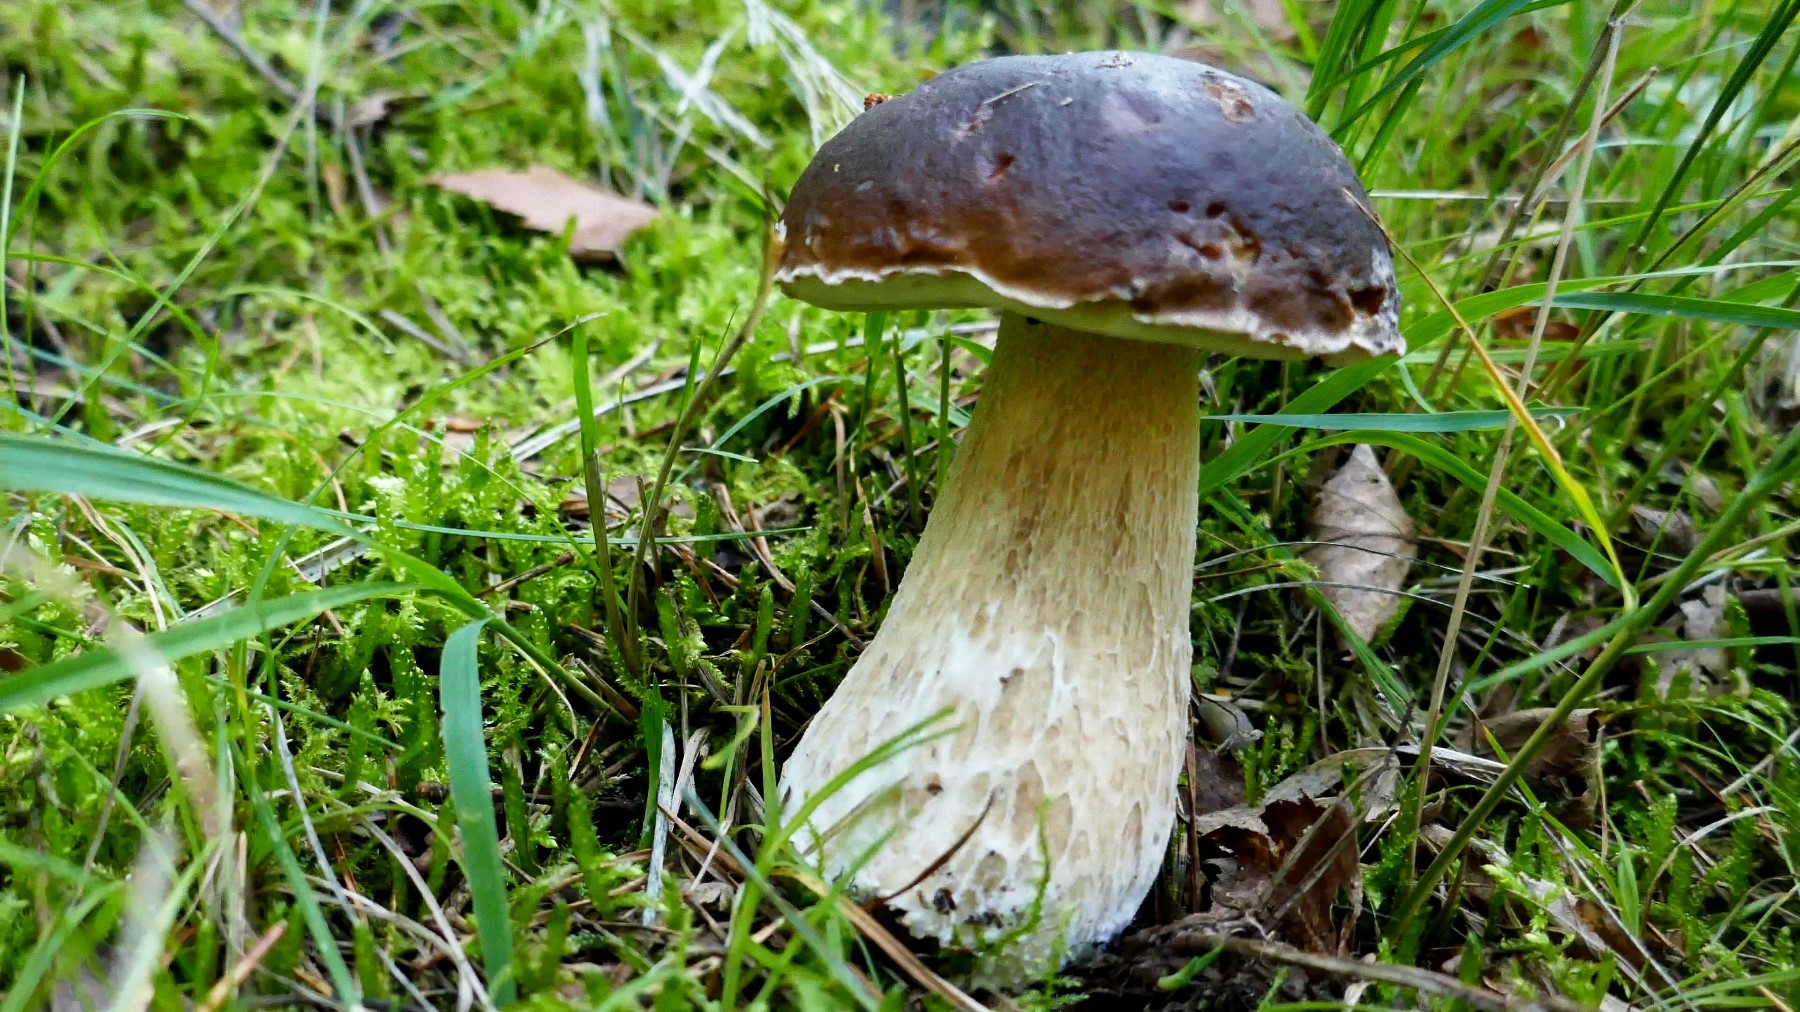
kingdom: Fungi
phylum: Basidiomycota
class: Agaricomycetes
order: Boletales
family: Boletaceae
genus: Boletus
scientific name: Boletus edulis
